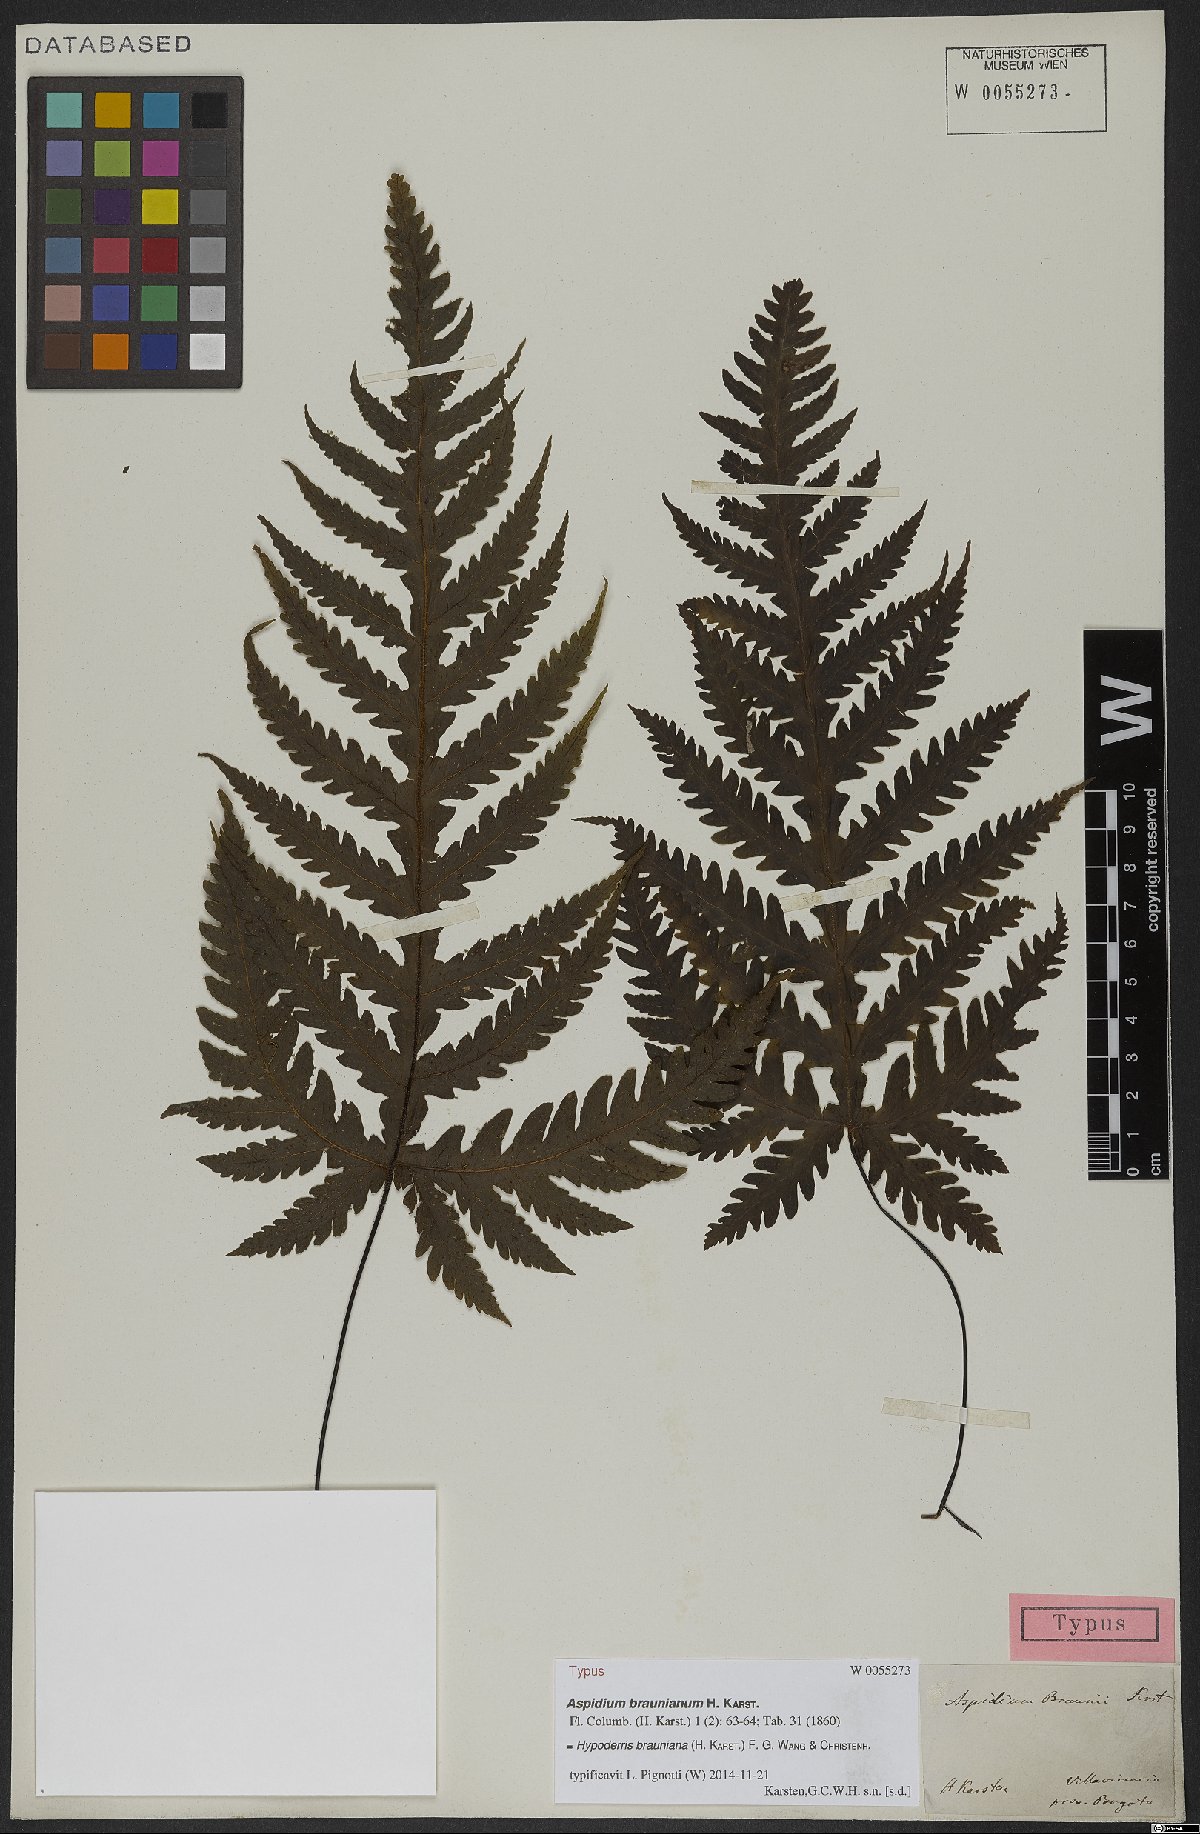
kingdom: Plantae
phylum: Tracheophyta
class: Polypodiopsida
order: Polypodiales
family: Tectariaceae
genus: Hypoderris
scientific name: Hypoderris brauniana
